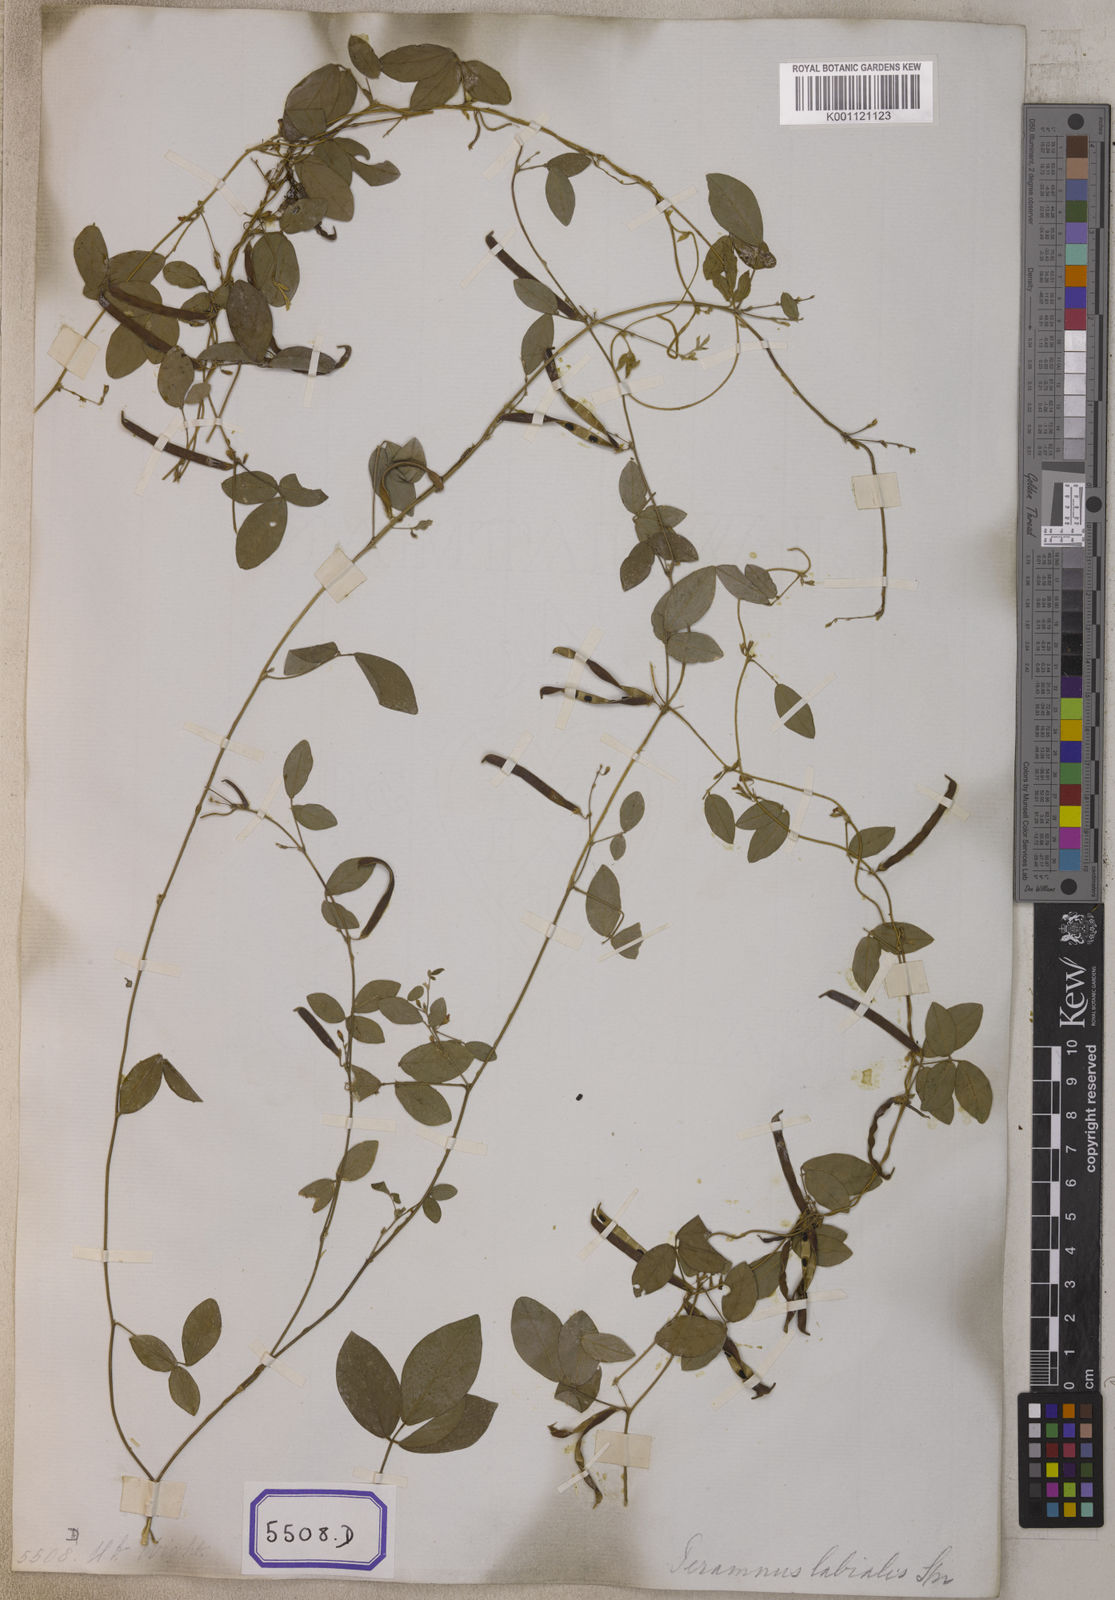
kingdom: Plantae
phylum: Tracheophyta
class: Magnoliopsida
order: Fabales
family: Fabaceae
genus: Teramnus
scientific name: Teramnus labialis
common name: Blue wiss
